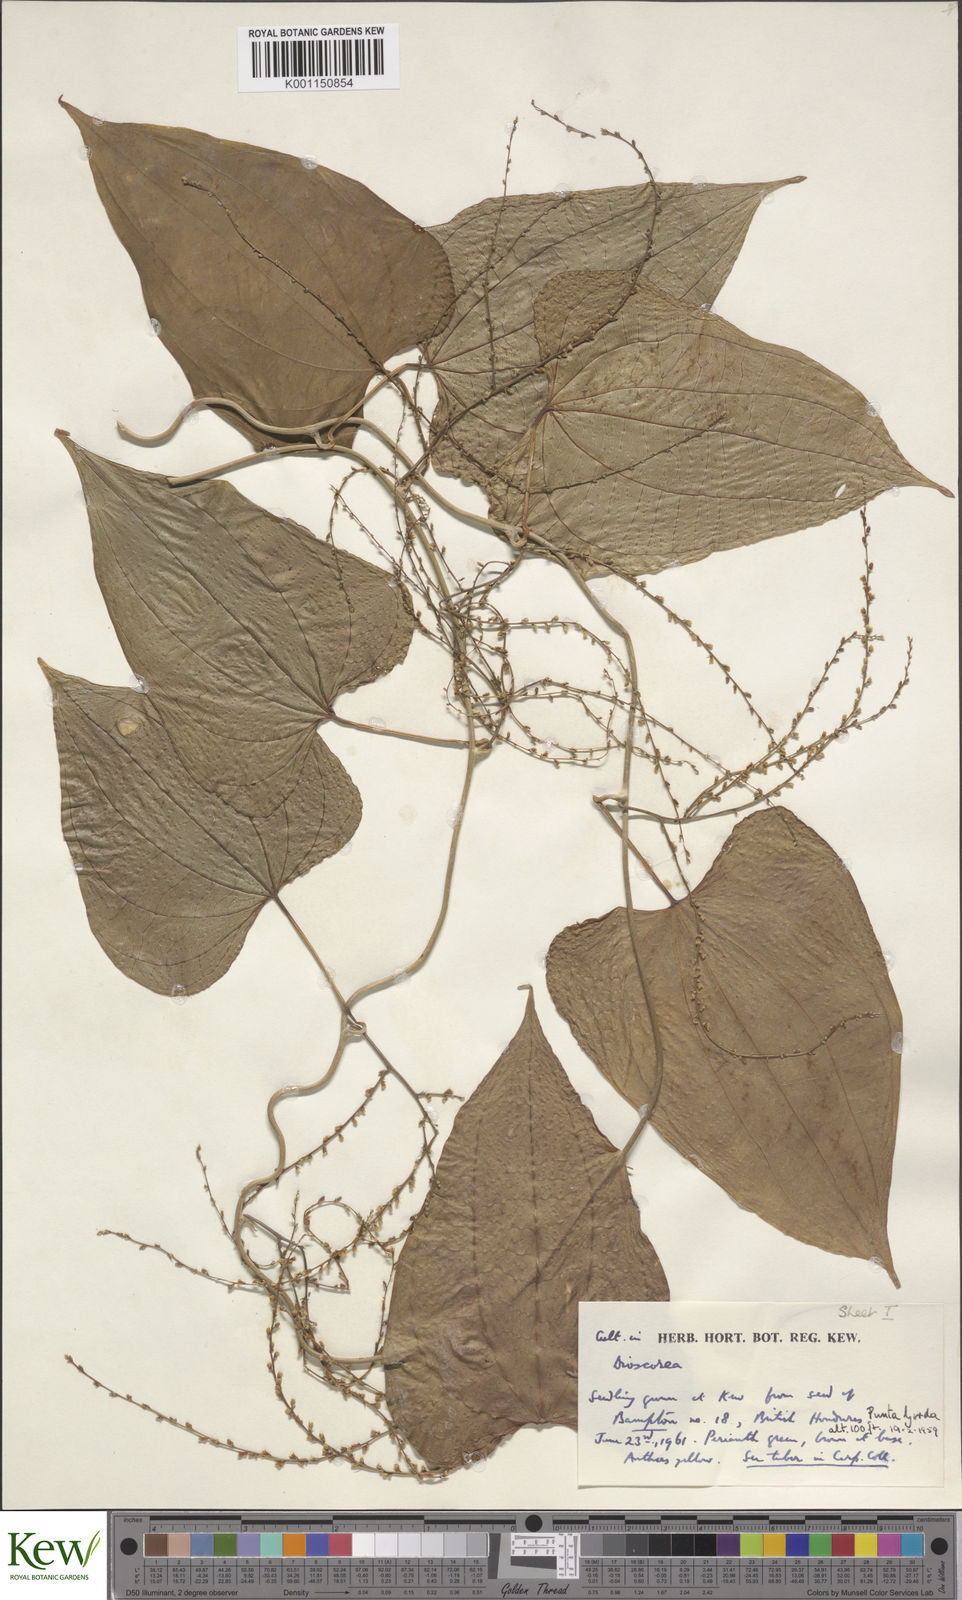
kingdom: Plantae
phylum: Tracheophyta
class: Liliopsida
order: Dioscoreales
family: Dioscoreaceae
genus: Dioscorea
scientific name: Dioscorea
